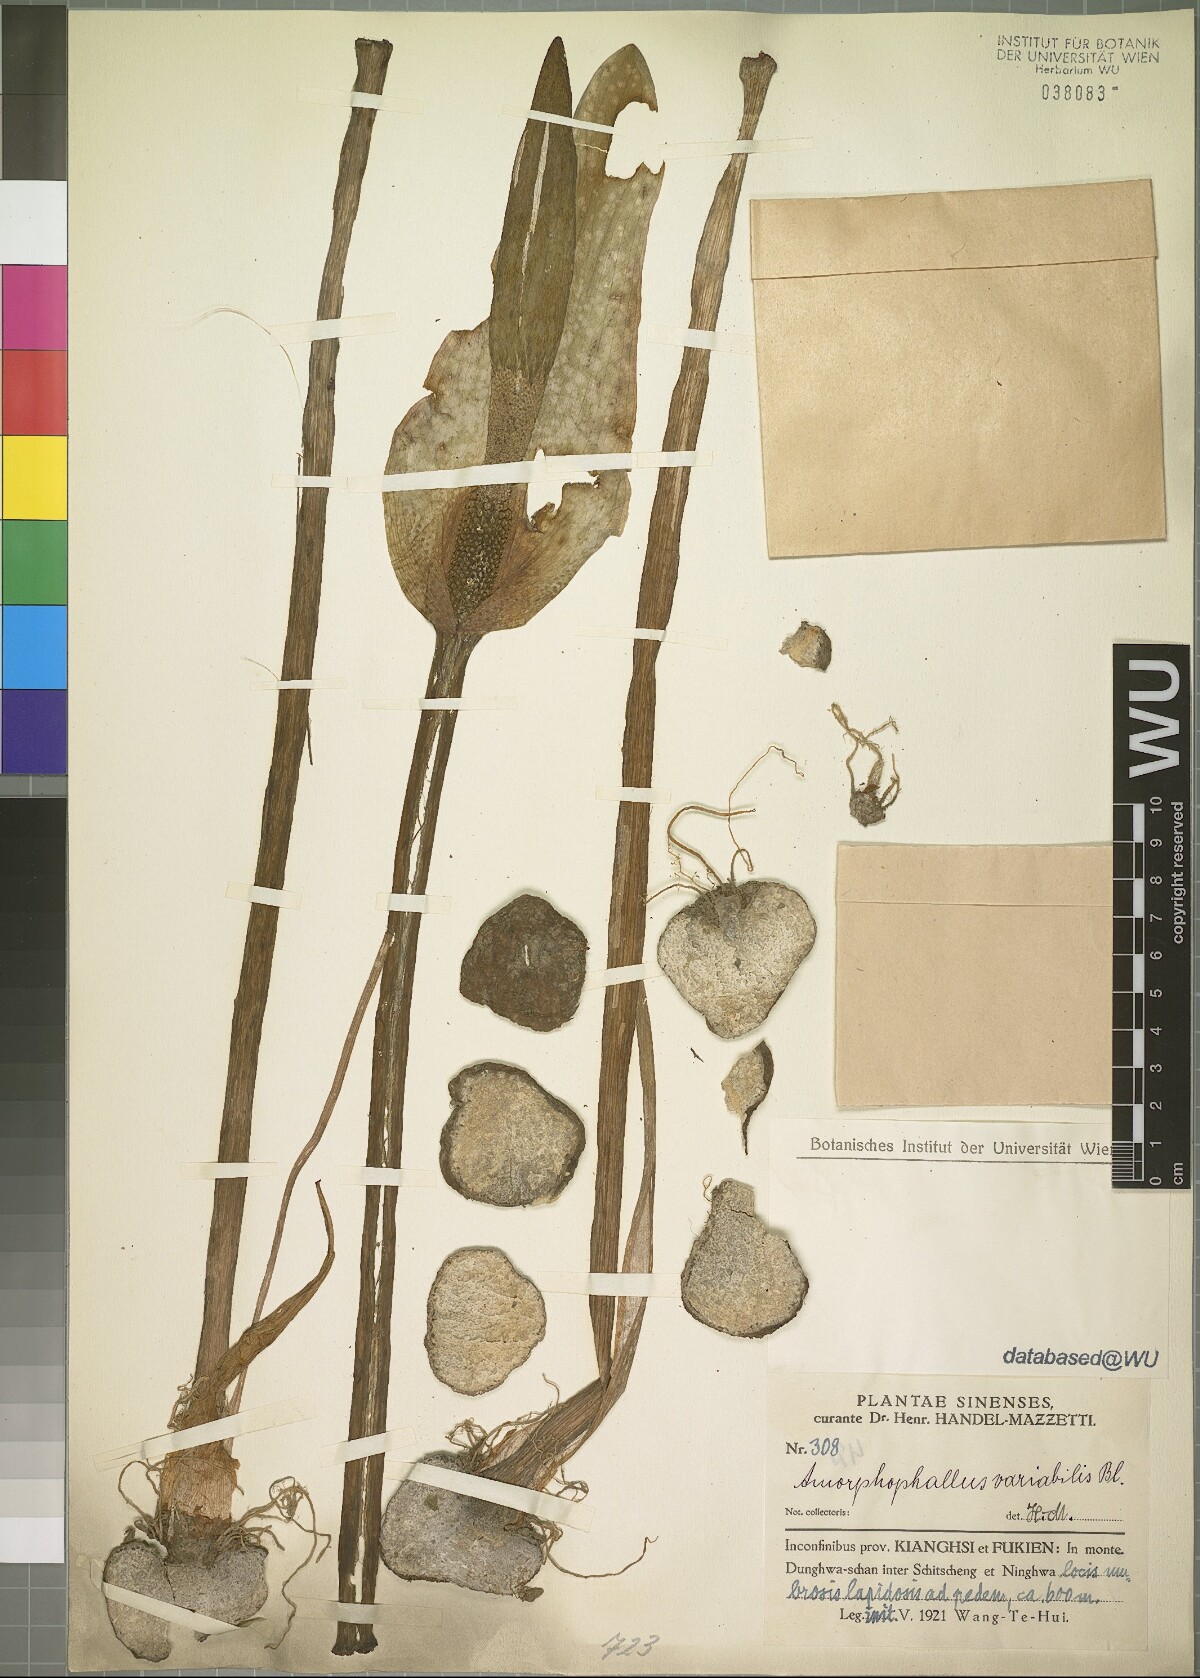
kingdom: Plantae
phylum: Tracheophyta
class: Liliopsida
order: Alismatales
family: Araceae
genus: Amorphophallus
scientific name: Amorphophallus variabilis
